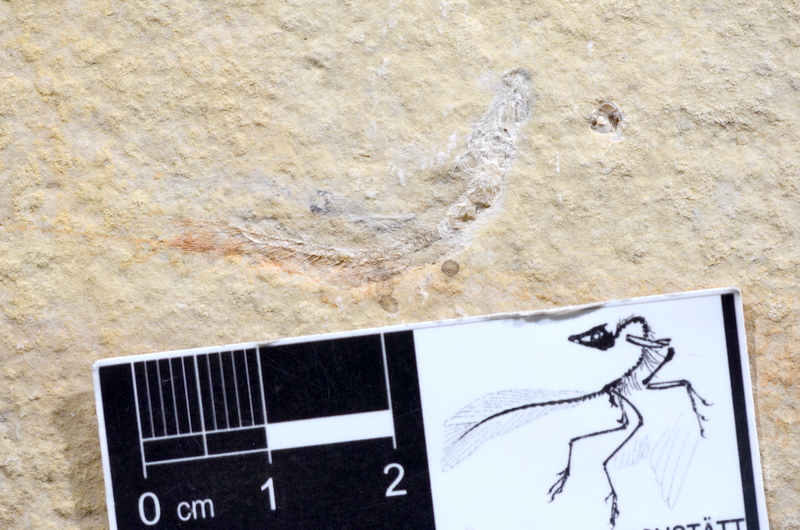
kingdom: Animalia
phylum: Chordata
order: Salmoniformes
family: Orthogonikleithridae
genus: Leptolepides
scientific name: Leptolepides sprattiformis
